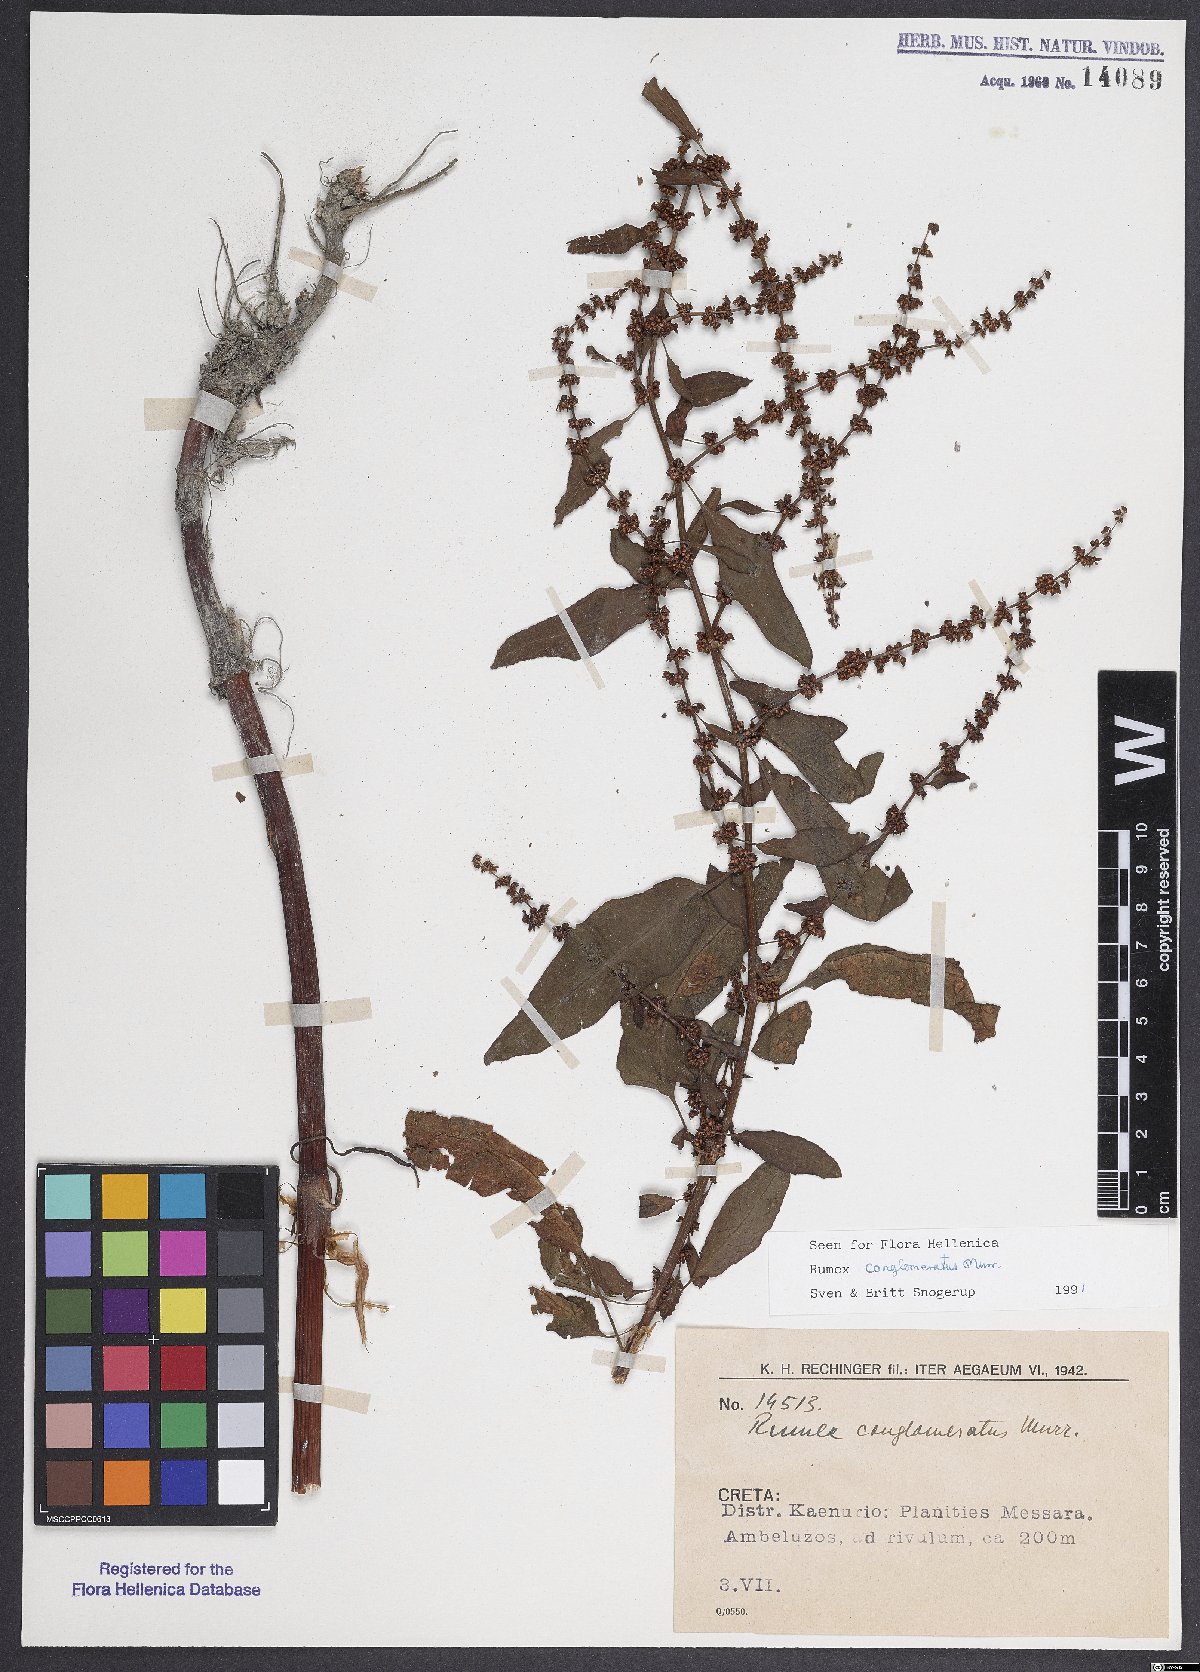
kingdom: Plantae
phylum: Tracheophyta
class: Magnoliopsida
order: Caryophyllales
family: Polygonaceae
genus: Rumex
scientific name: Rumex conglomeratus
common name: Clustered dock
